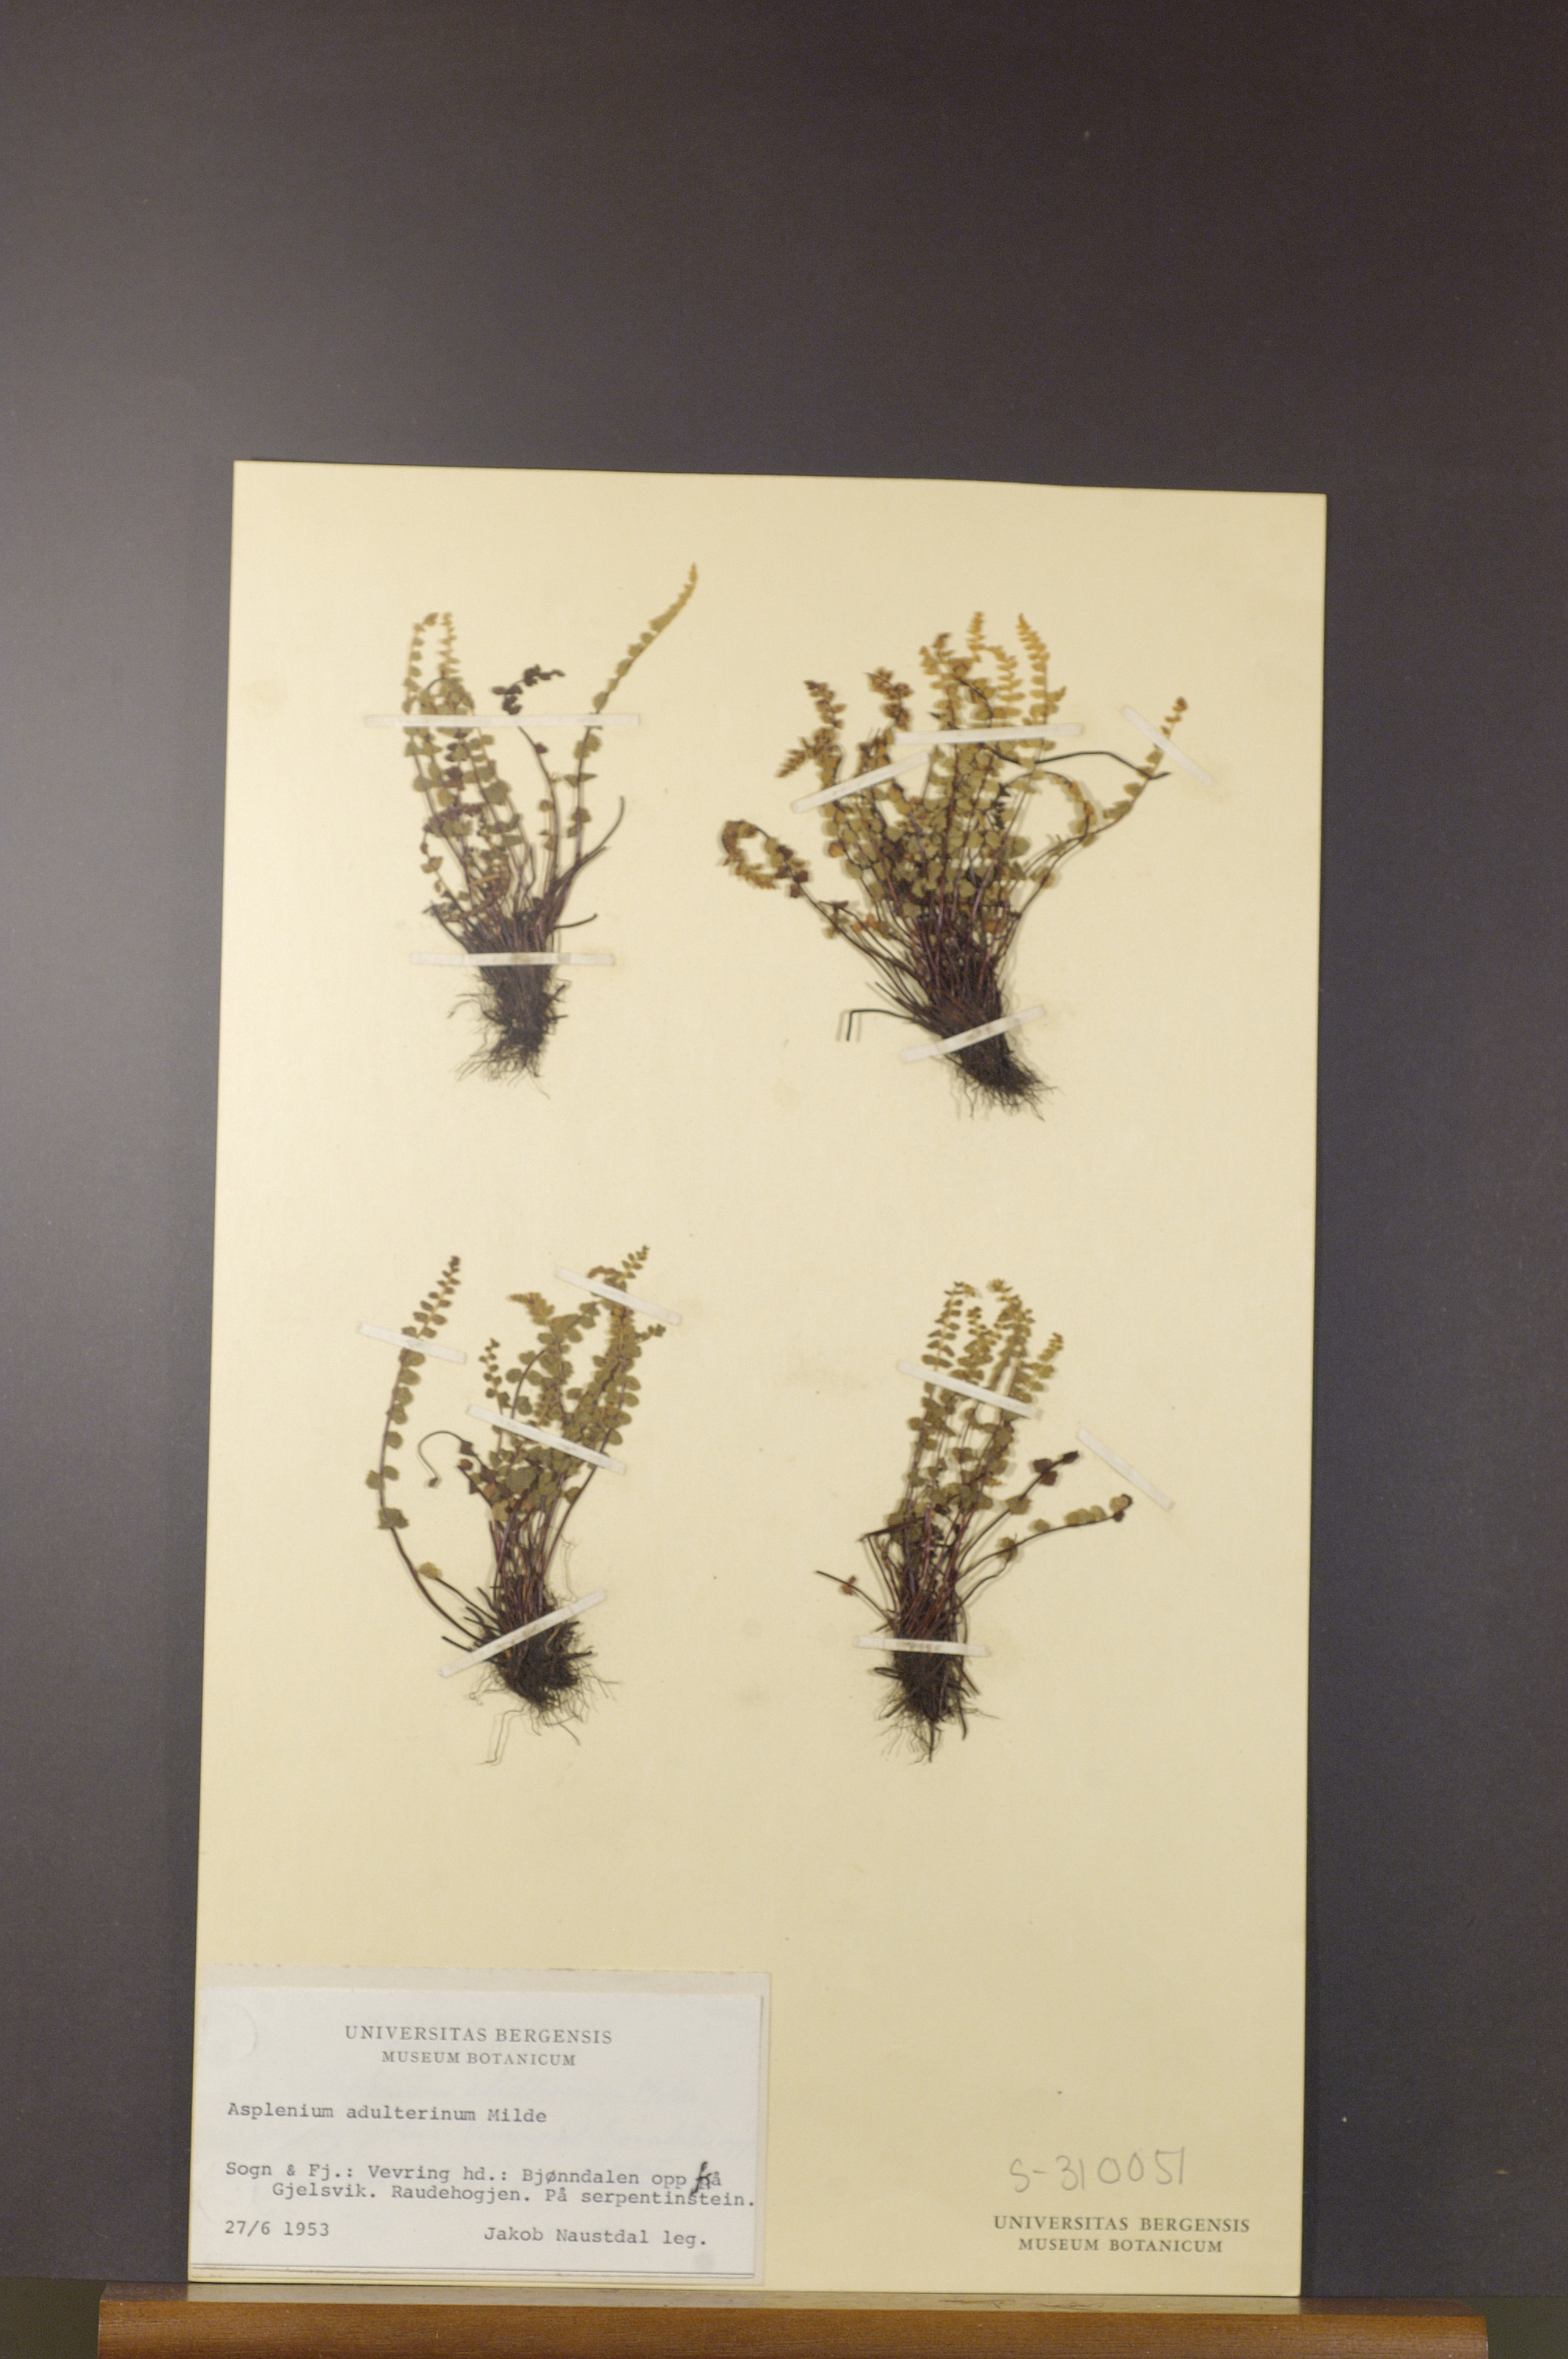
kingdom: Plantae
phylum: Tracheophyta
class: Polypodiopsida
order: Polypodiales
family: Aspleniaceae
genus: Asplenium
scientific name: Asplenium adulterinum
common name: Adulterated spleenwort
